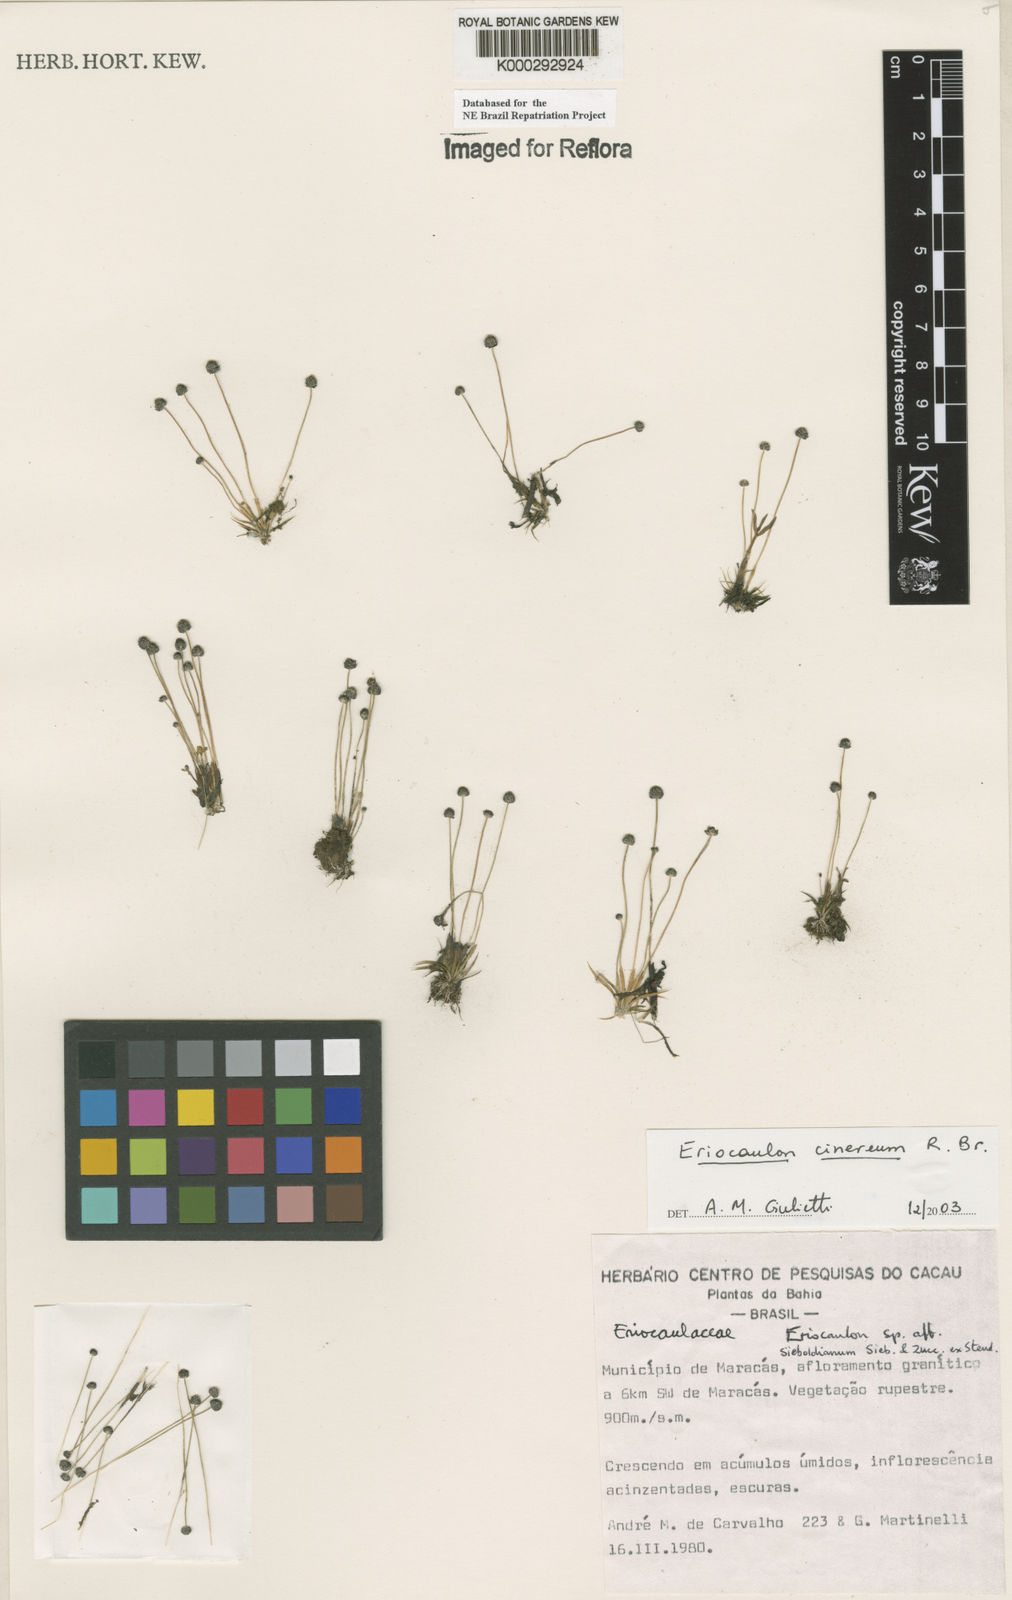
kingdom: Plantae
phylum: Tracheophyta
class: Liliopsida
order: Poales
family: Eriocaulaceae
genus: Eriocaulon
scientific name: Eriocaulon cinereum
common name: Ashy pipewort
